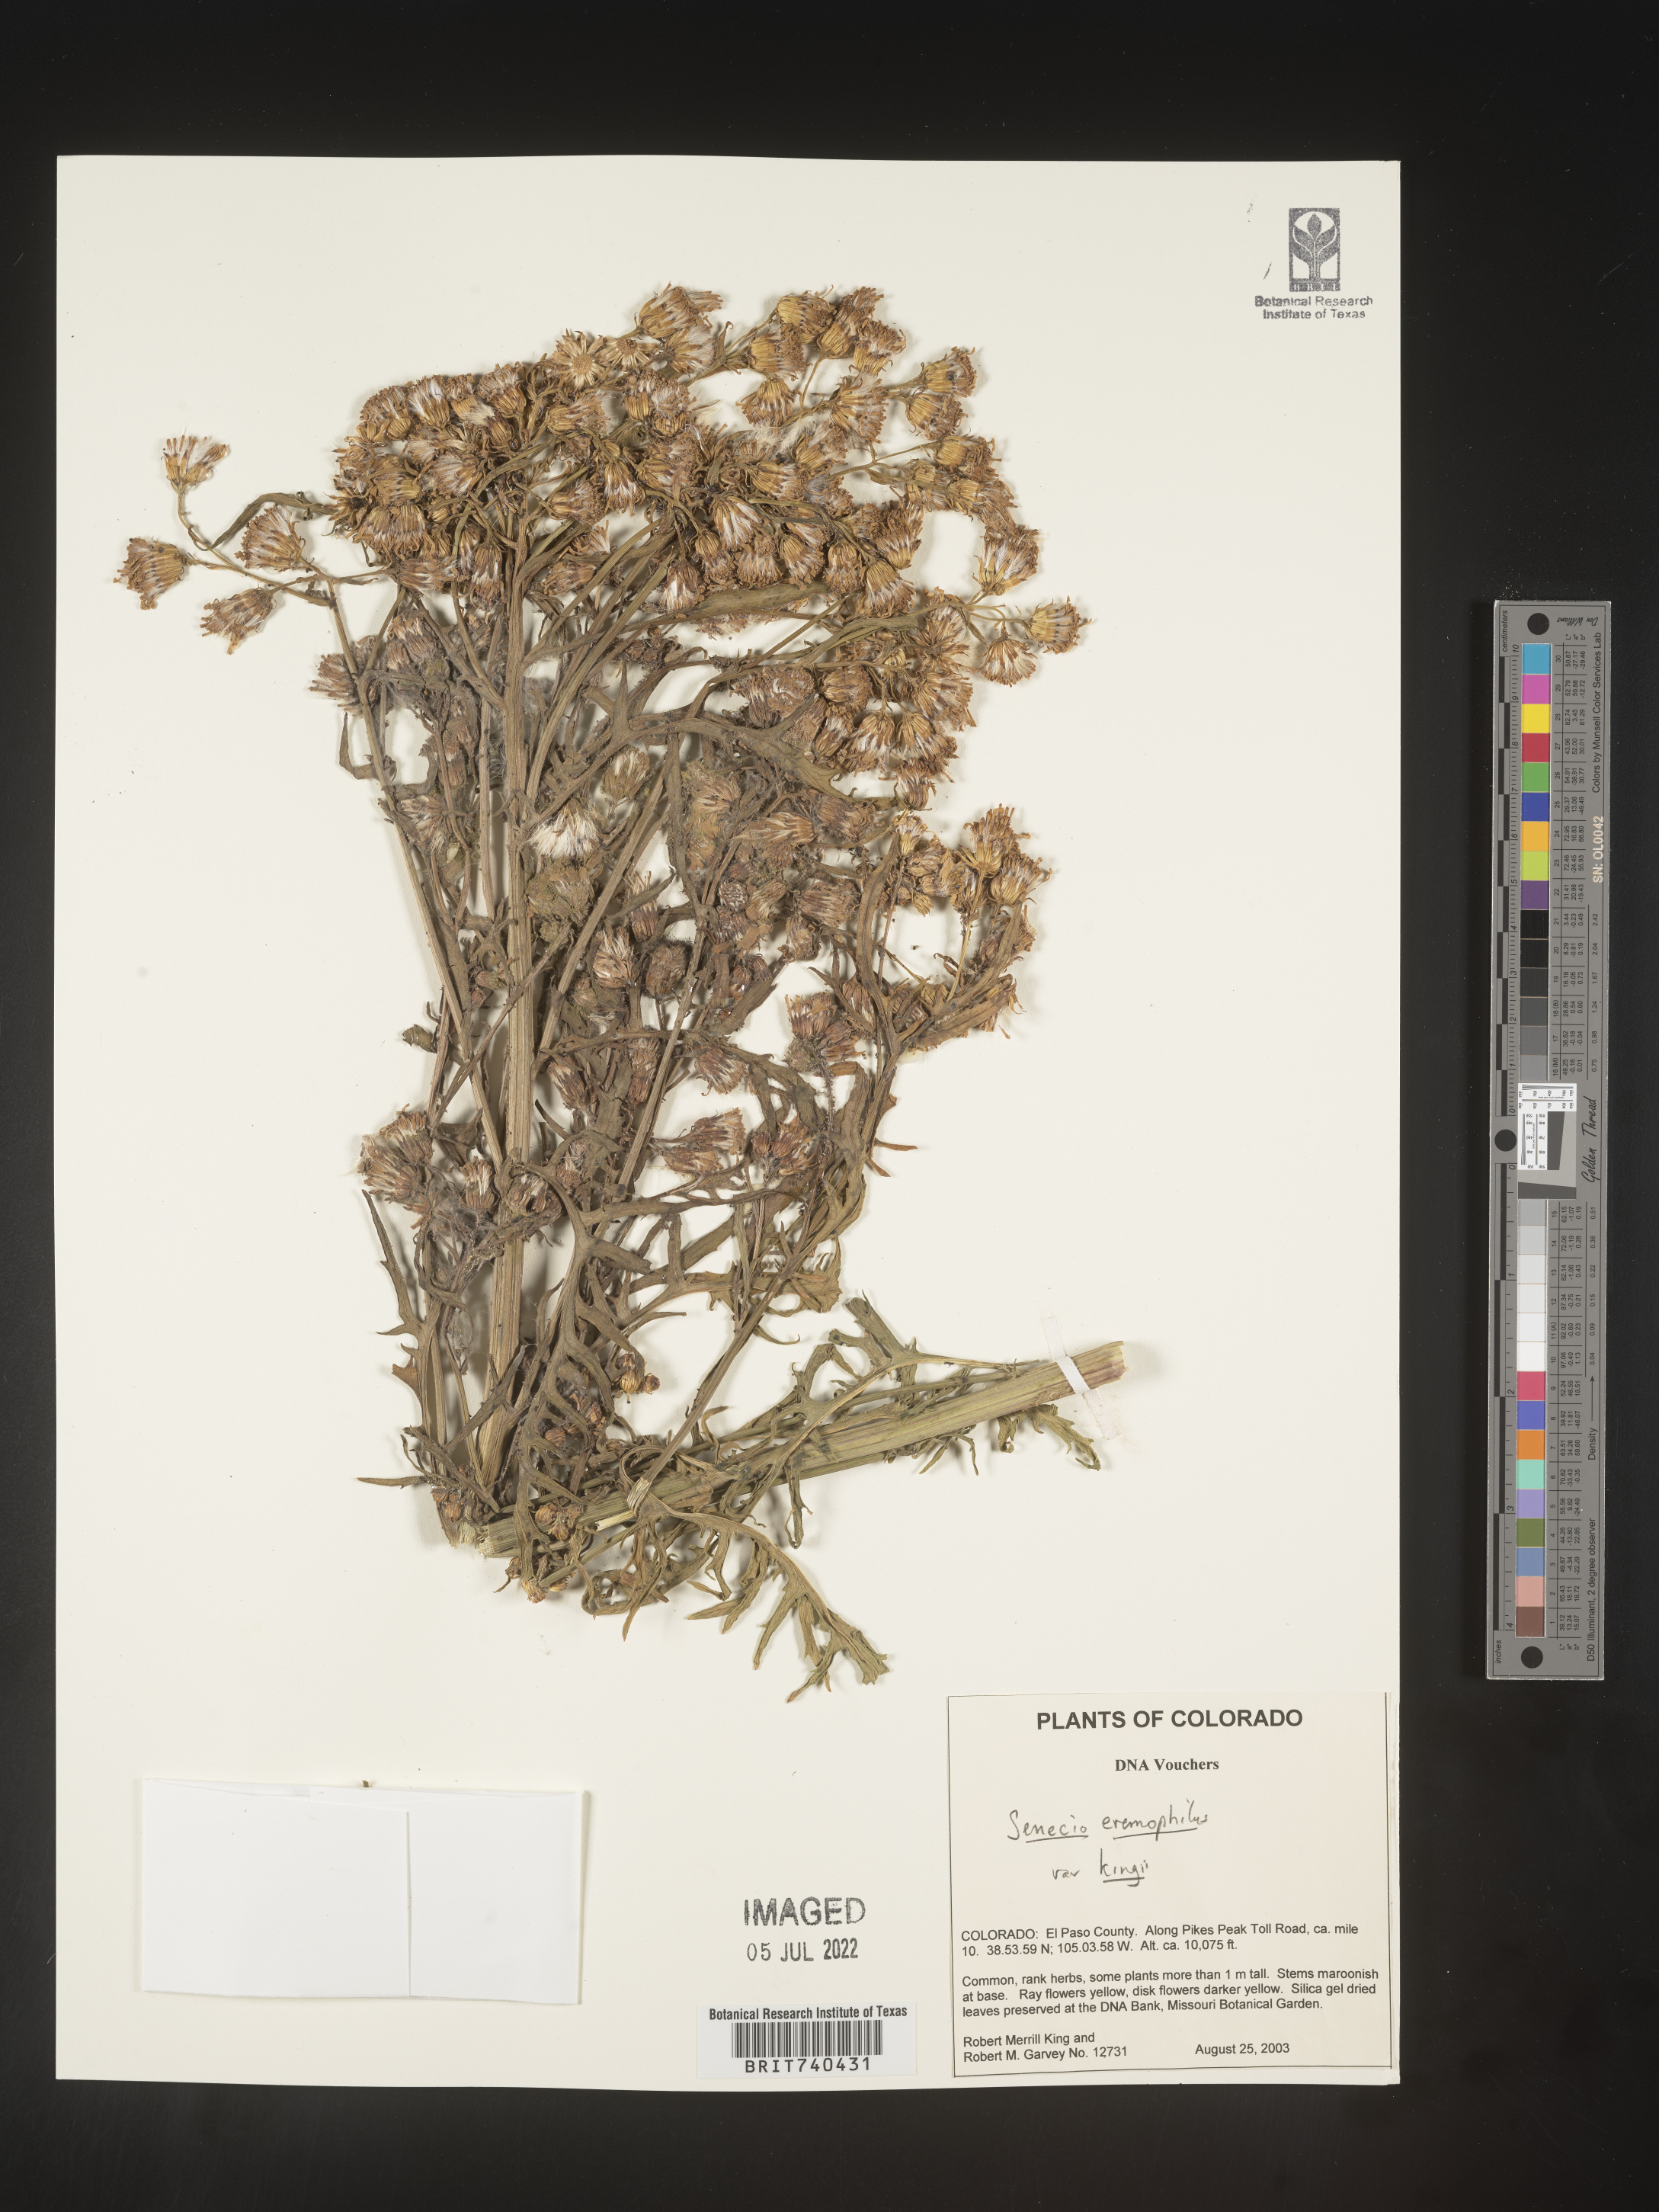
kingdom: Plantae
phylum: Tracheophyta
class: Magnoliopsida
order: Asterales
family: Asteraceae
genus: Senecio
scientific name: Senecio eremophilus
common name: Desert ragwort
